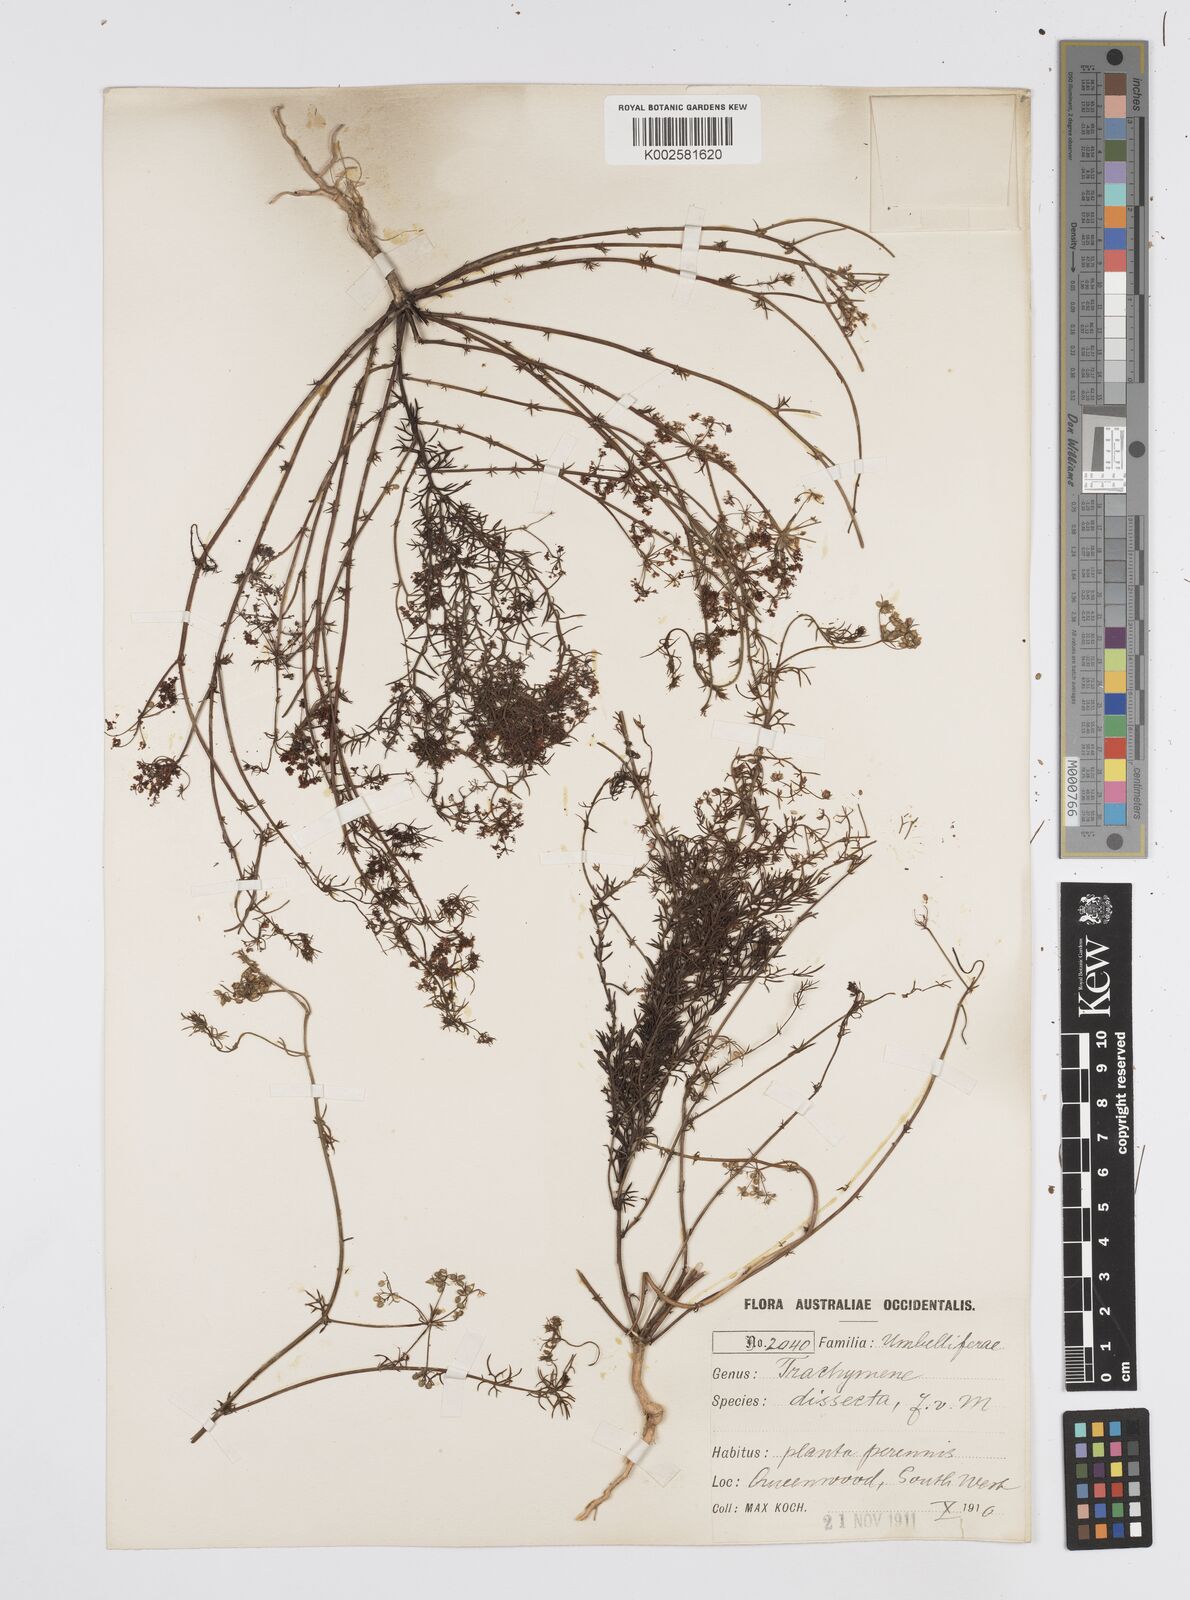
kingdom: Plantae
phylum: Tracheophyta
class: Magnoliopsida
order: Apiales
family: Apiaceae
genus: Platysace
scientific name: Platysace tenuissima
